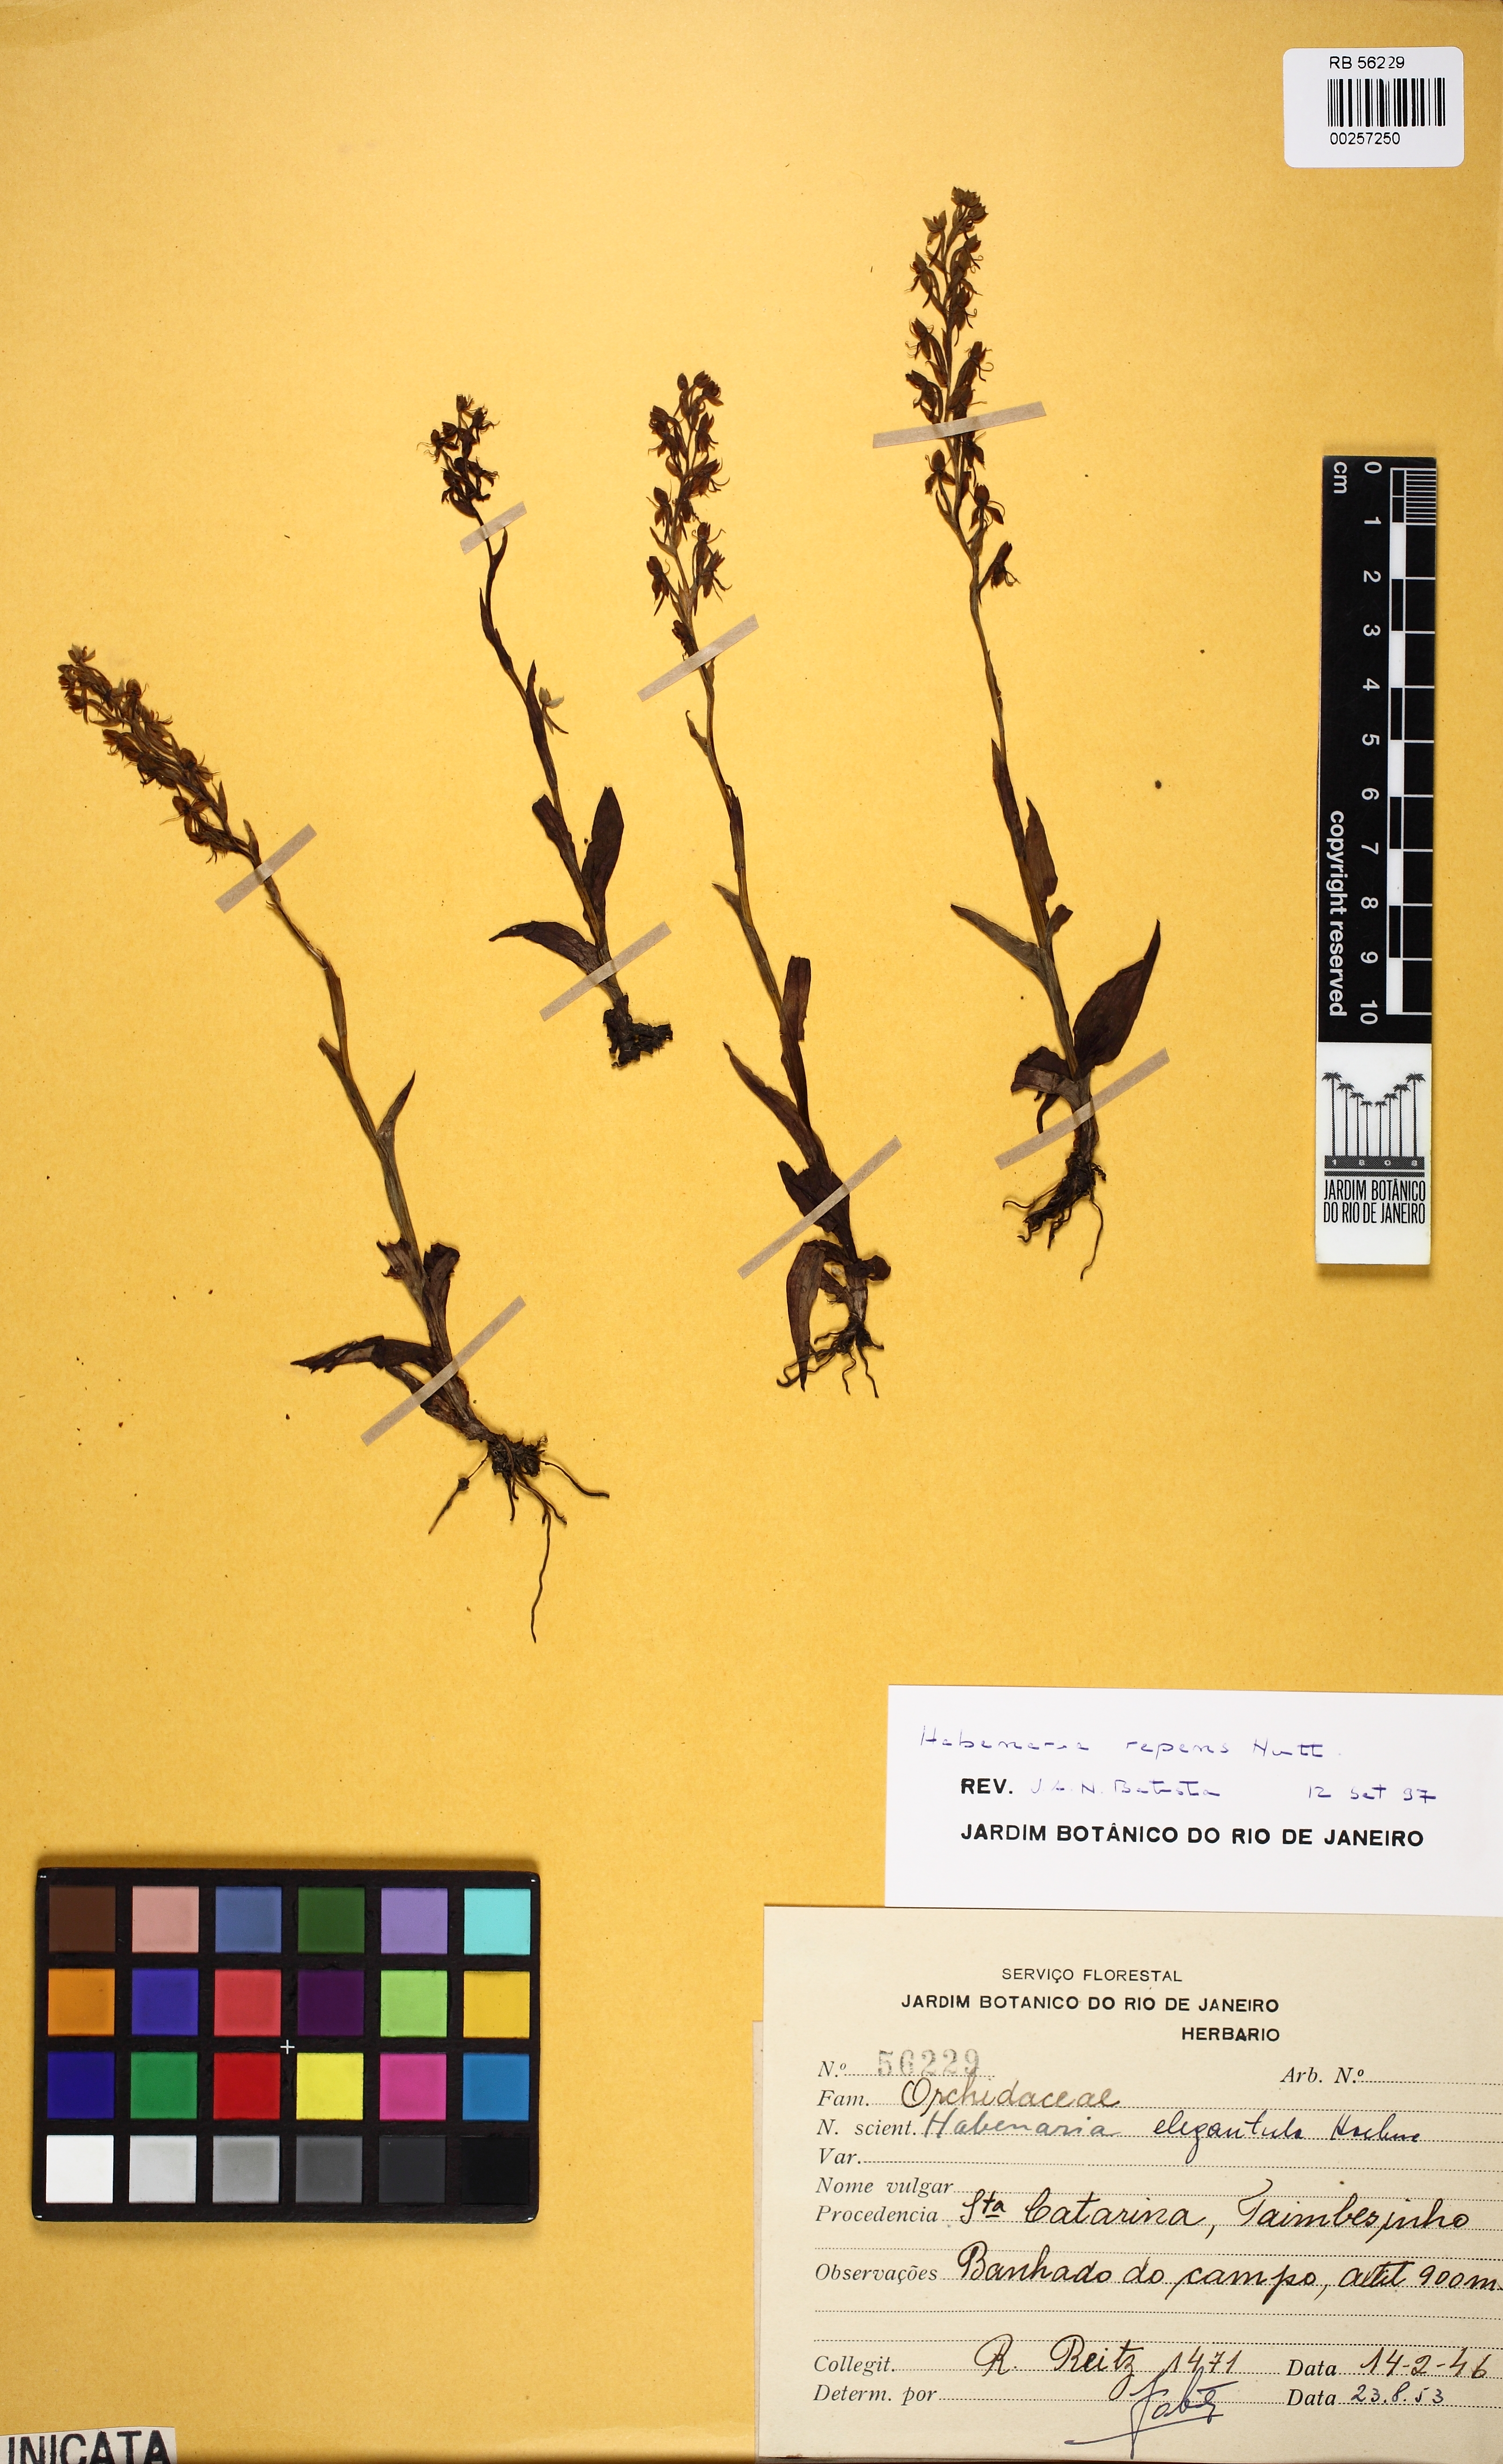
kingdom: Plantae
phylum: Tracheophyta
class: Liliopsida
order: Asparagales
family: Orchidaceae
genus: Habenaria
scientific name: Habenaria aranifera
